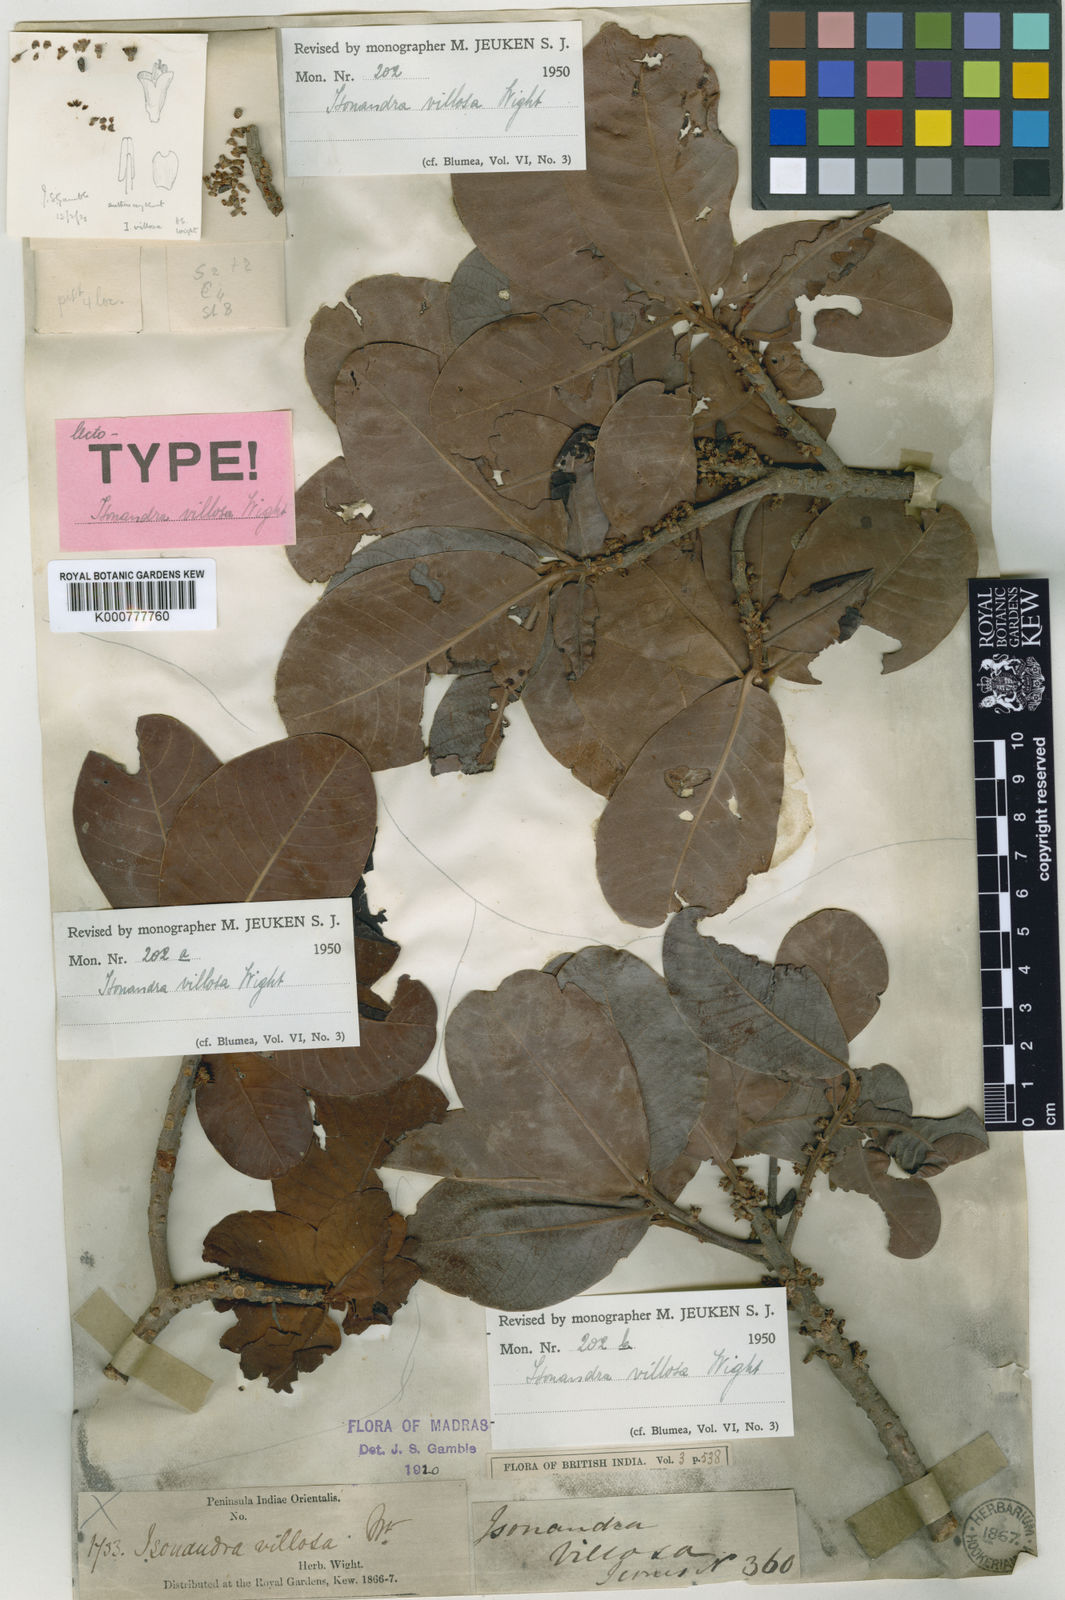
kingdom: Plantae
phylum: Tracheophyta
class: Magnoliopsida
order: Ericales
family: Sapotaceae
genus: Isonandra
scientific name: Isonandra villosa
